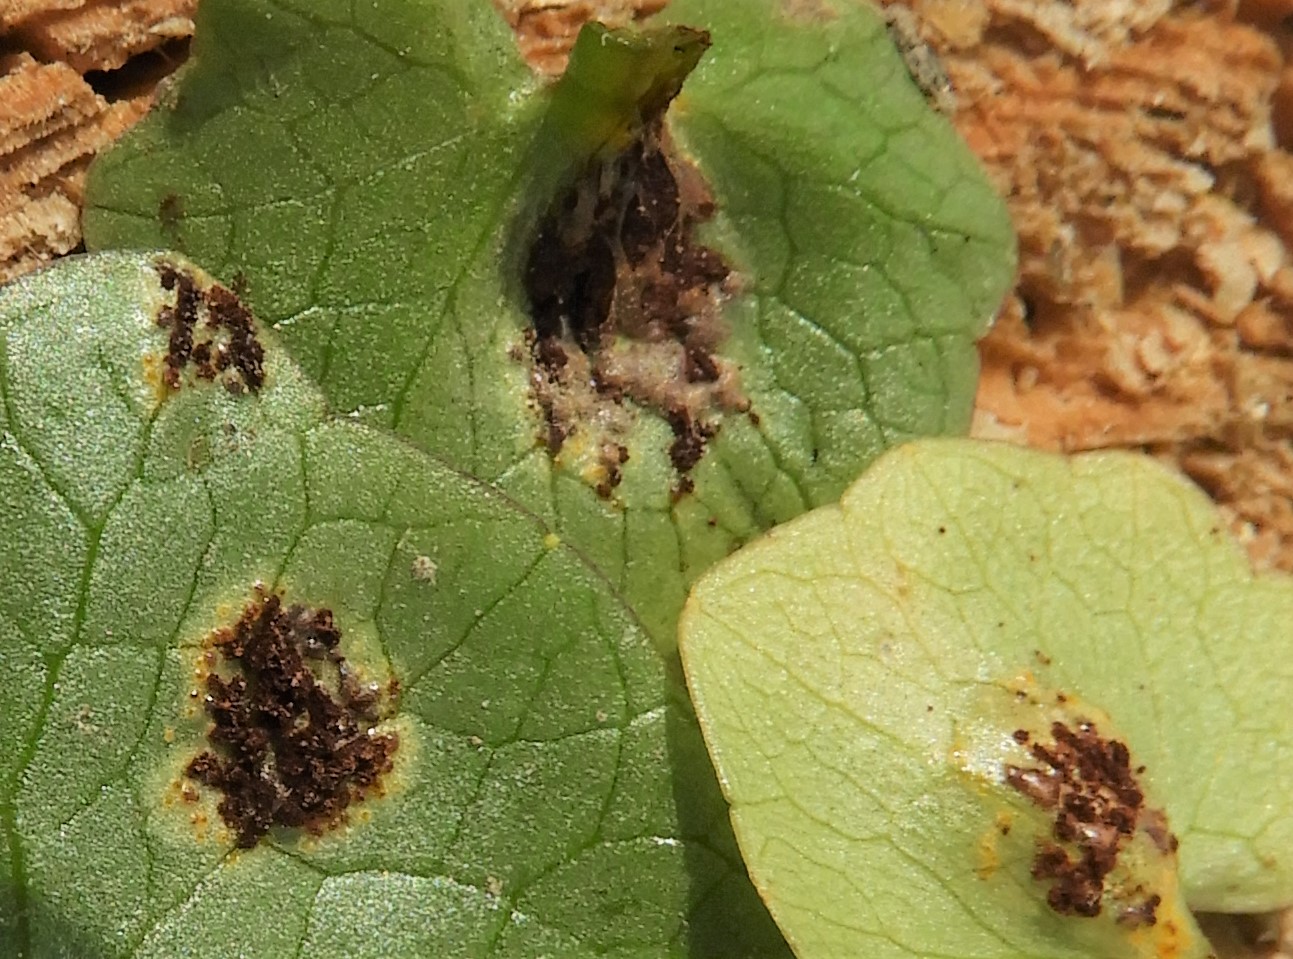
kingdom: Fungi
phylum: Basidiomycota
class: Pucciniomycetes
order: Pucciniales
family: Pucciniaceae
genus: Uromyces
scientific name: Uromyces ficariae
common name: vorterod-encellerust
